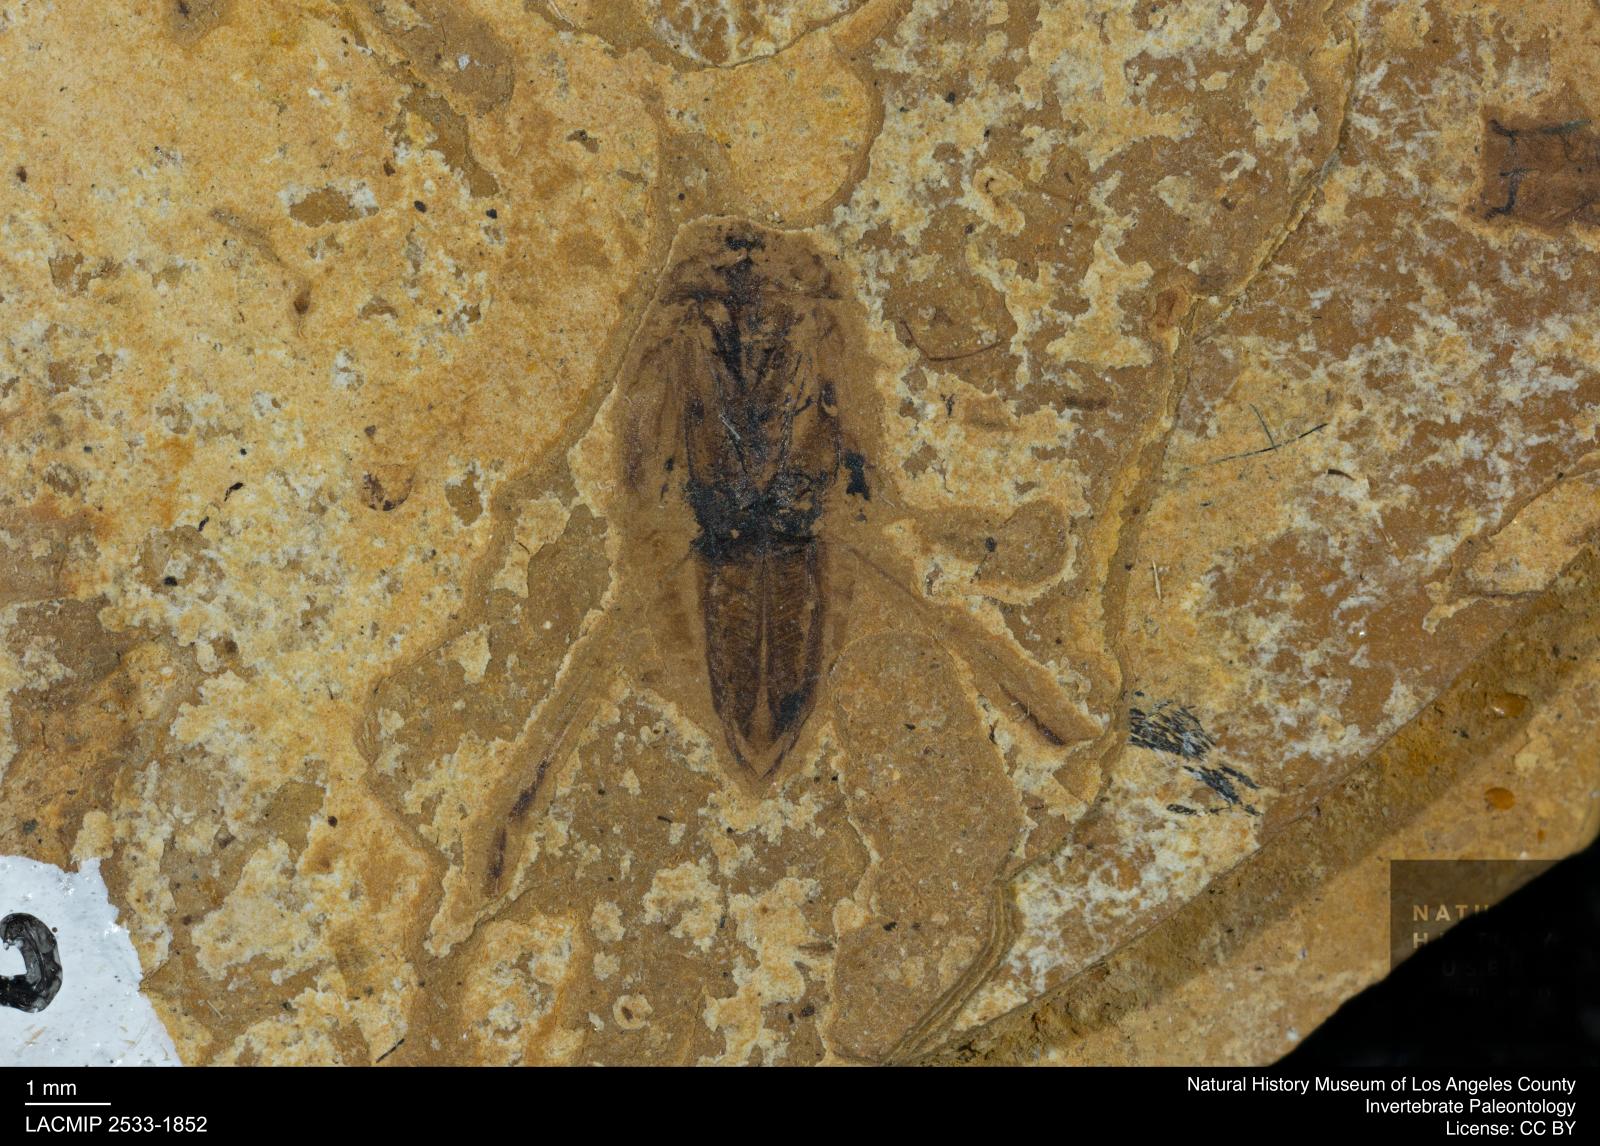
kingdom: Animalia
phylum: Arthropoda
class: Insecta
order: Hemiptera
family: Notonectidae
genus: Notonecta
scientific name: Notonecta
